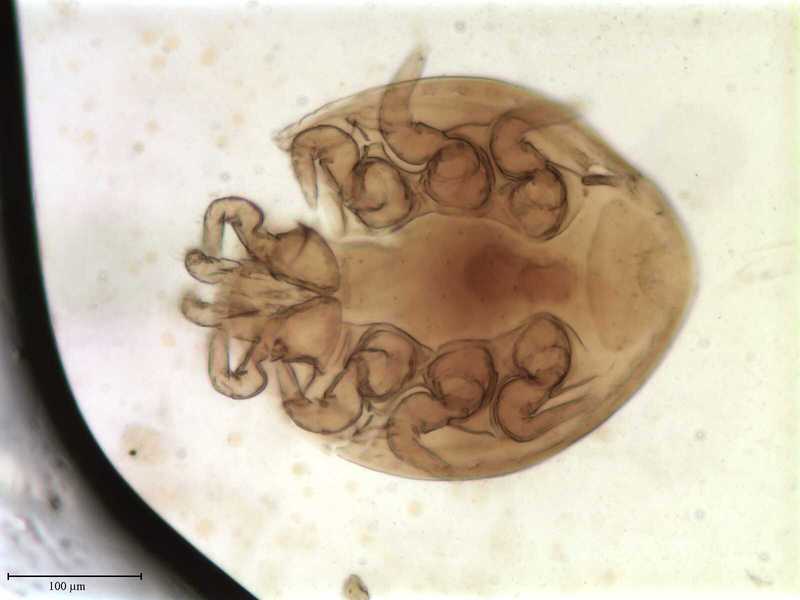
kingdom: Animalia
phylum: Arthropoda
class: Arachnida
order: Mesostigmata
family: Uropodidae
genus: Uroobovella
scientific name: Uroobovella ipidis
